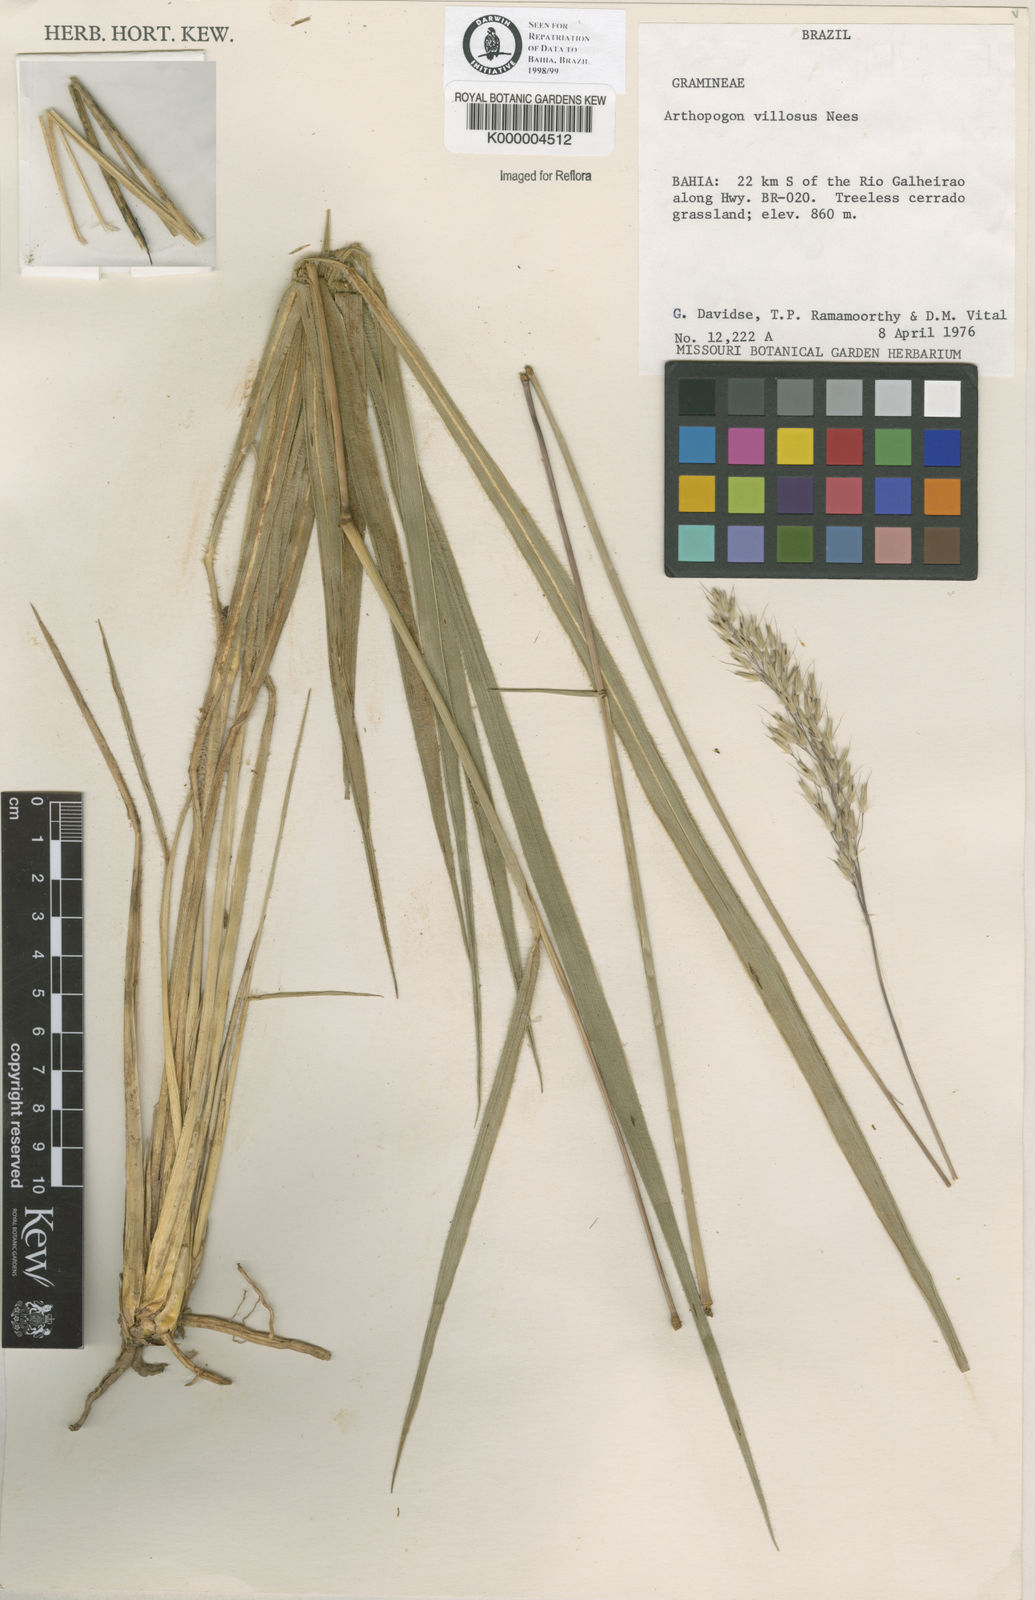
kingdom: Plantae
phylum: Tracheophyta
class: Liliopsida
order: Poales
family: Poaceae
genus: Arthropogon
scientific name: Arthropogon villosus
